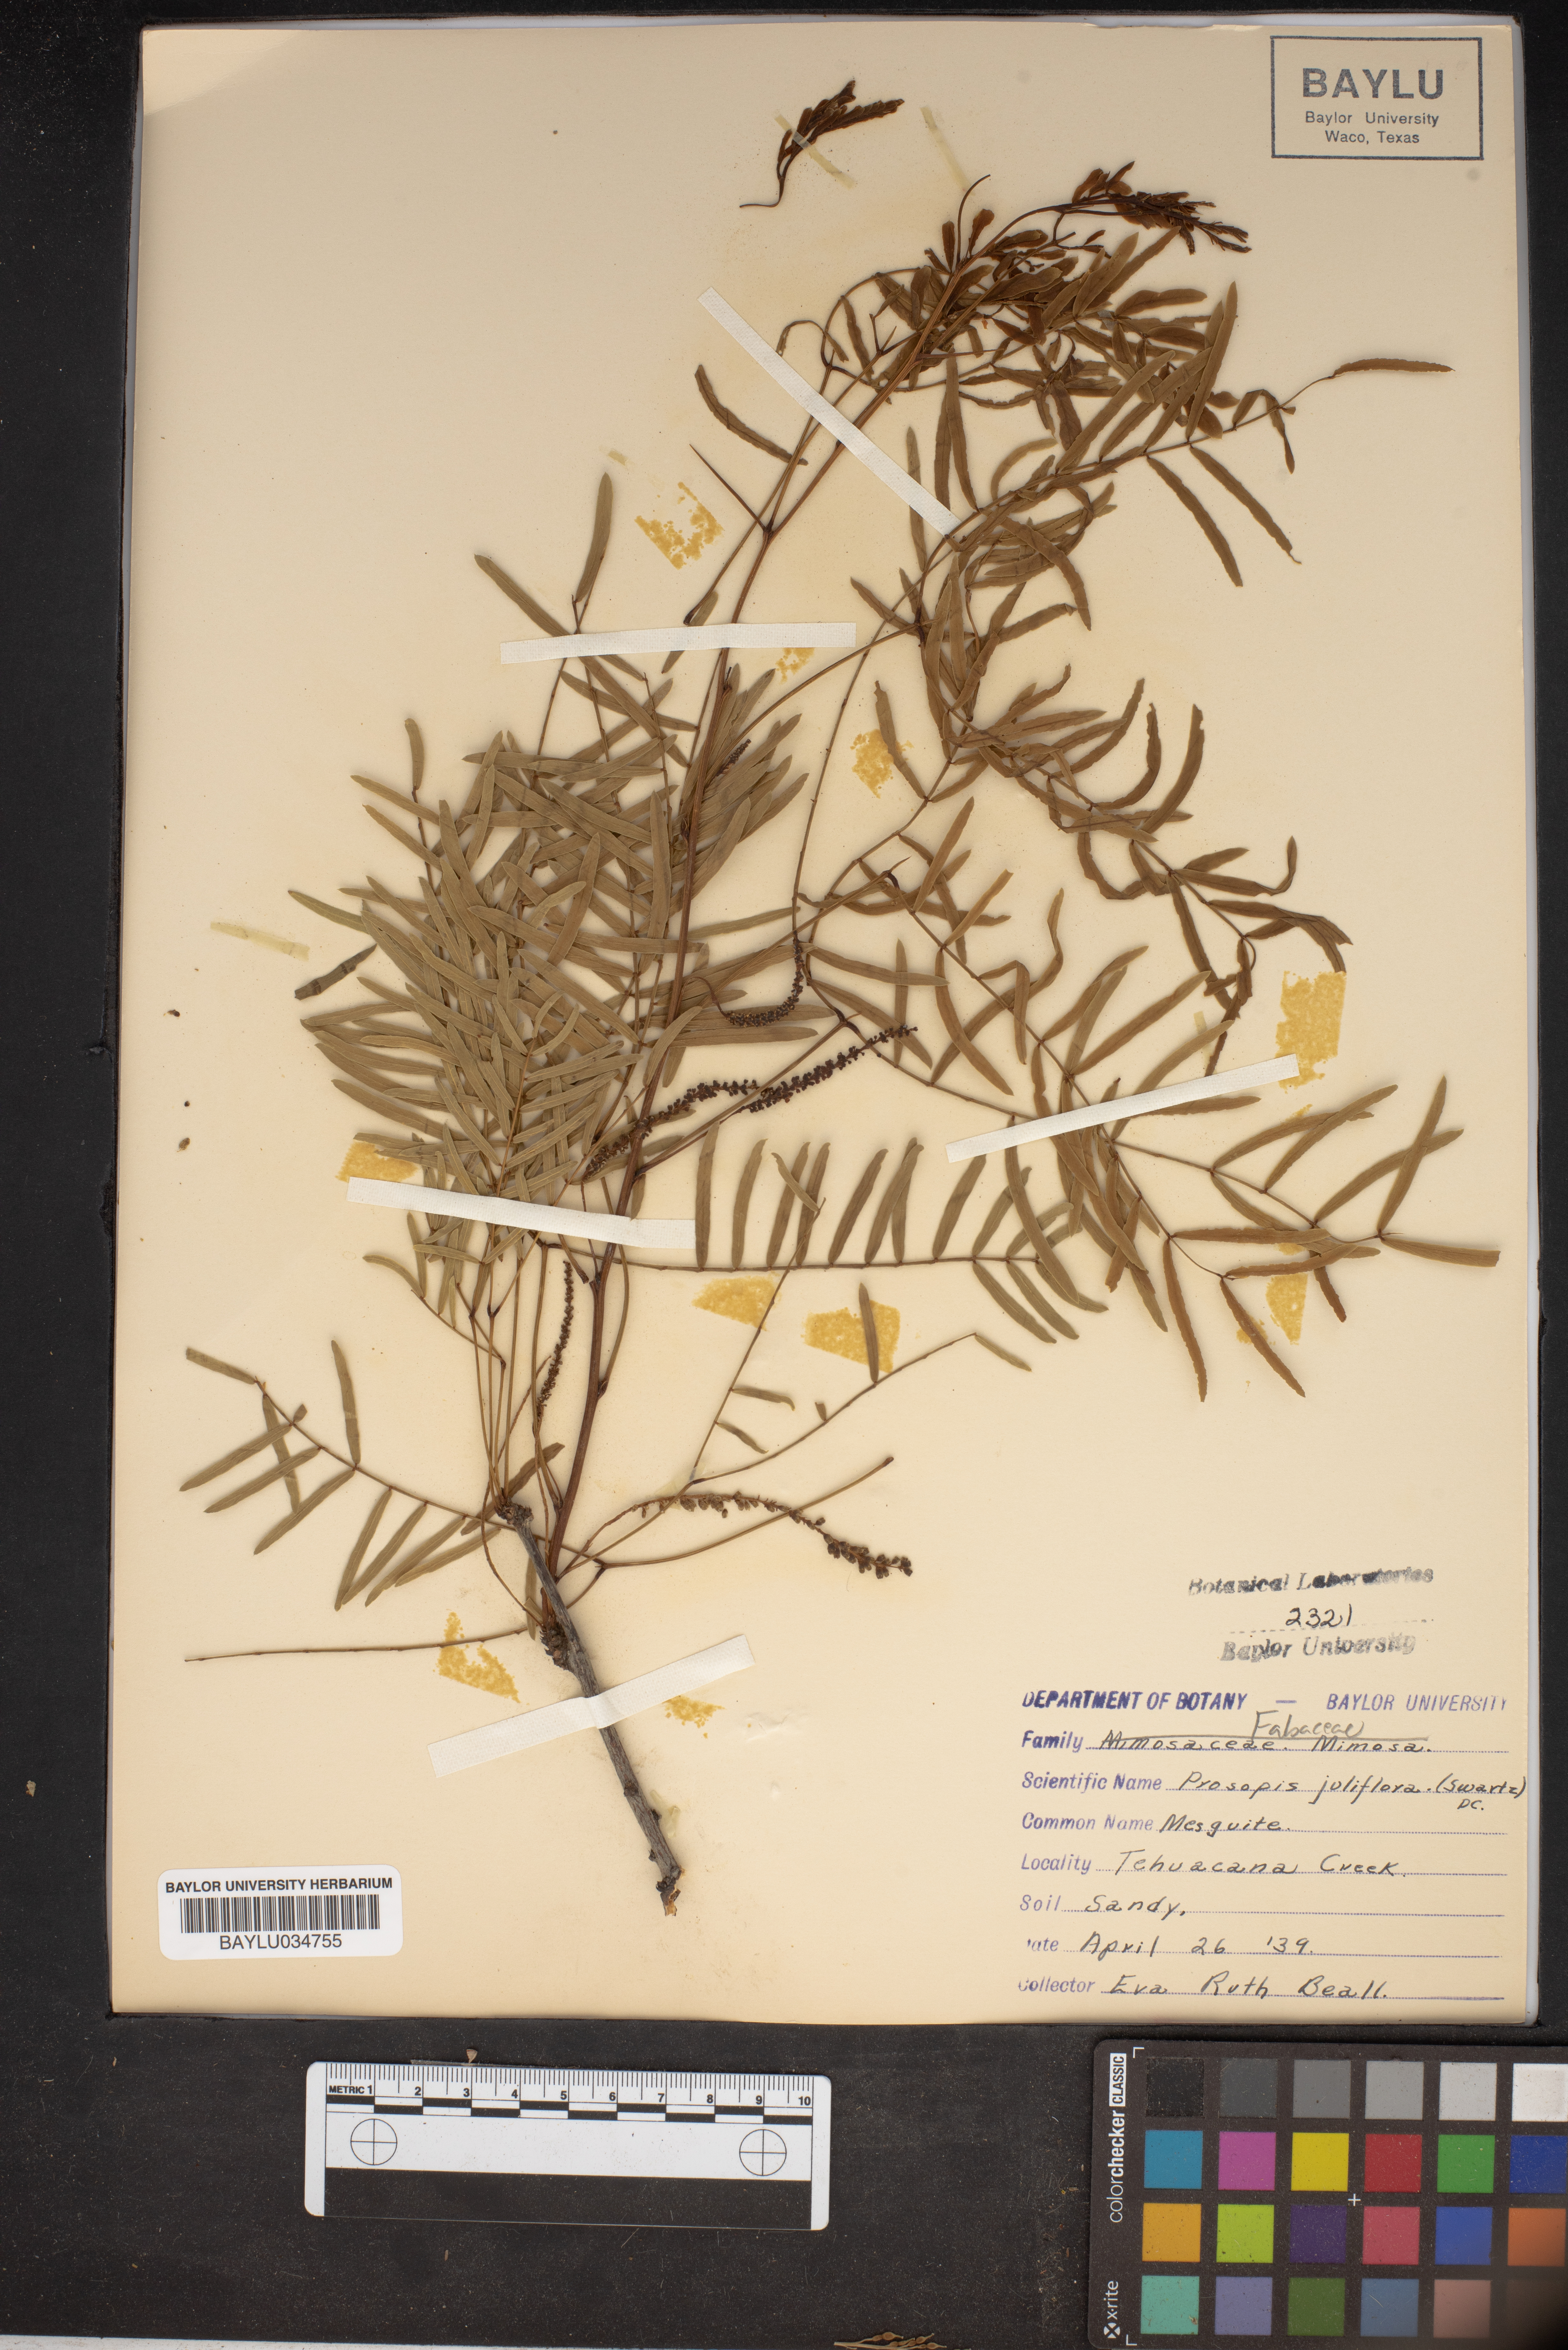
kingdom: Plantae
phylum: Tracheophyta
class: Magnoliopsida
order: Fabales
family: Fabaceae
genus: Prosopis
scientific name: Prosopis juliflora
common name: Mesquite
